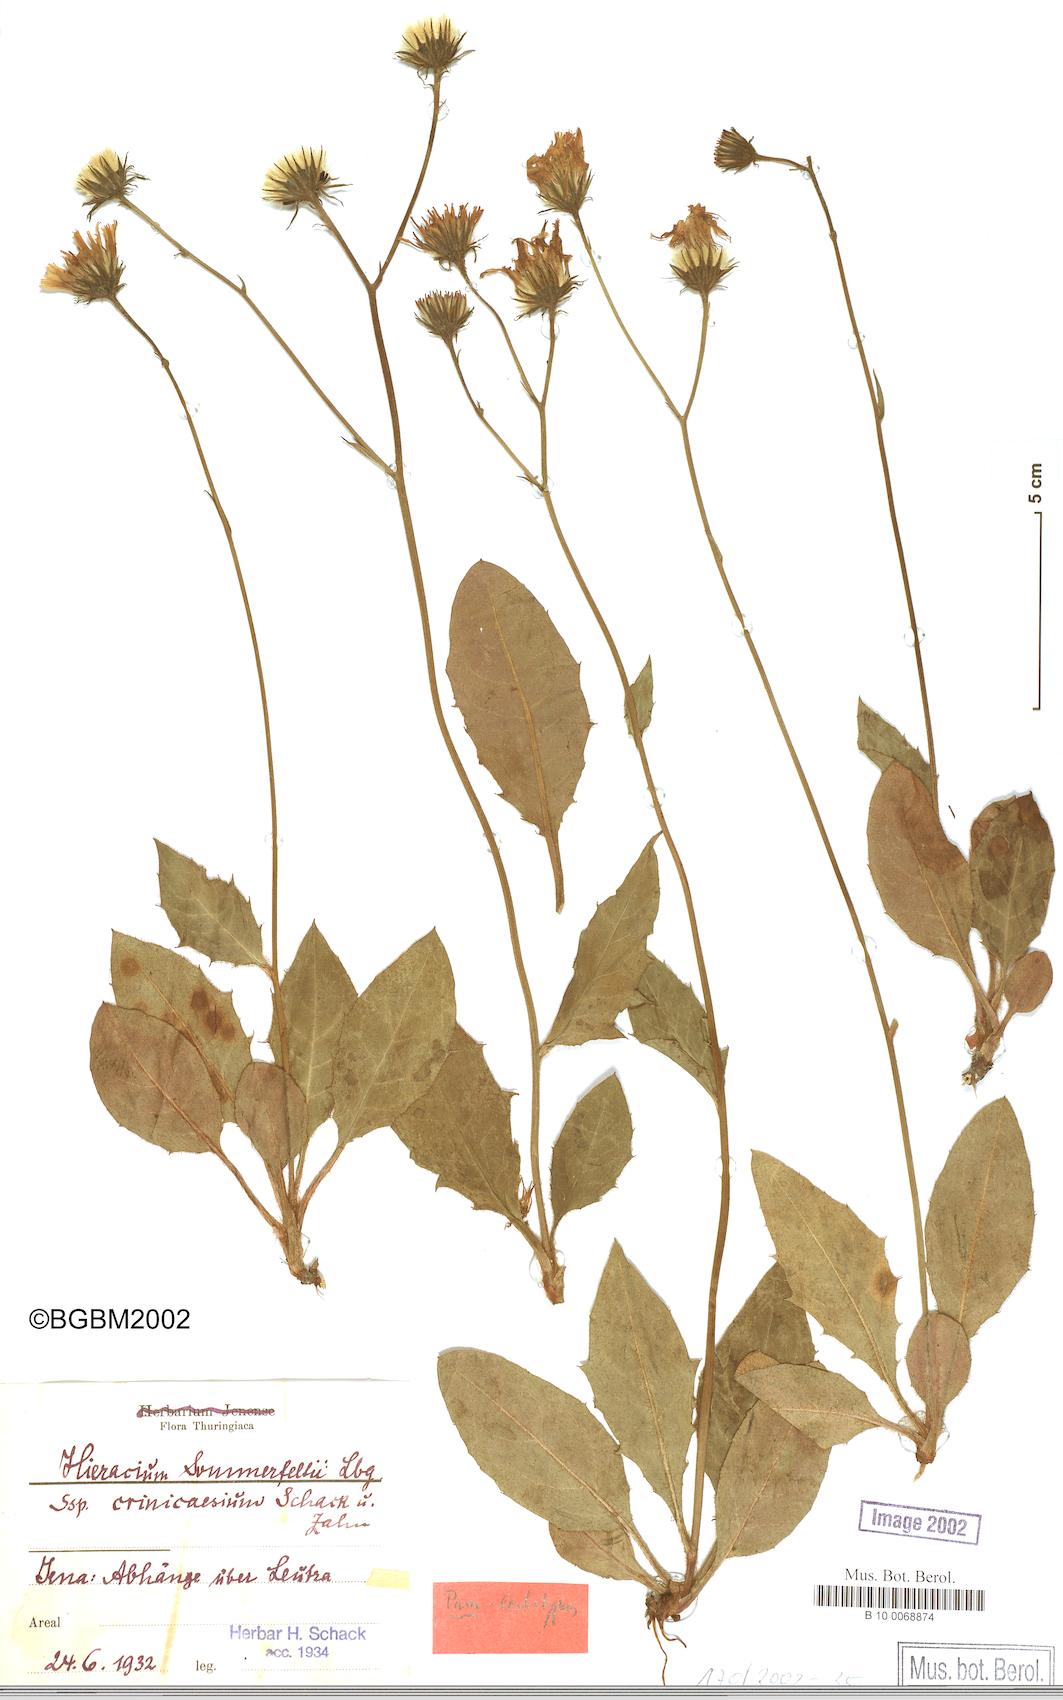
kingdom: Plantae
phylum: Tracheophyta
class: Magnoliopsida
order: Asterales
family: Asteraceae
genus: Hieracium
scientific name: Hieracium hypochoeroides
